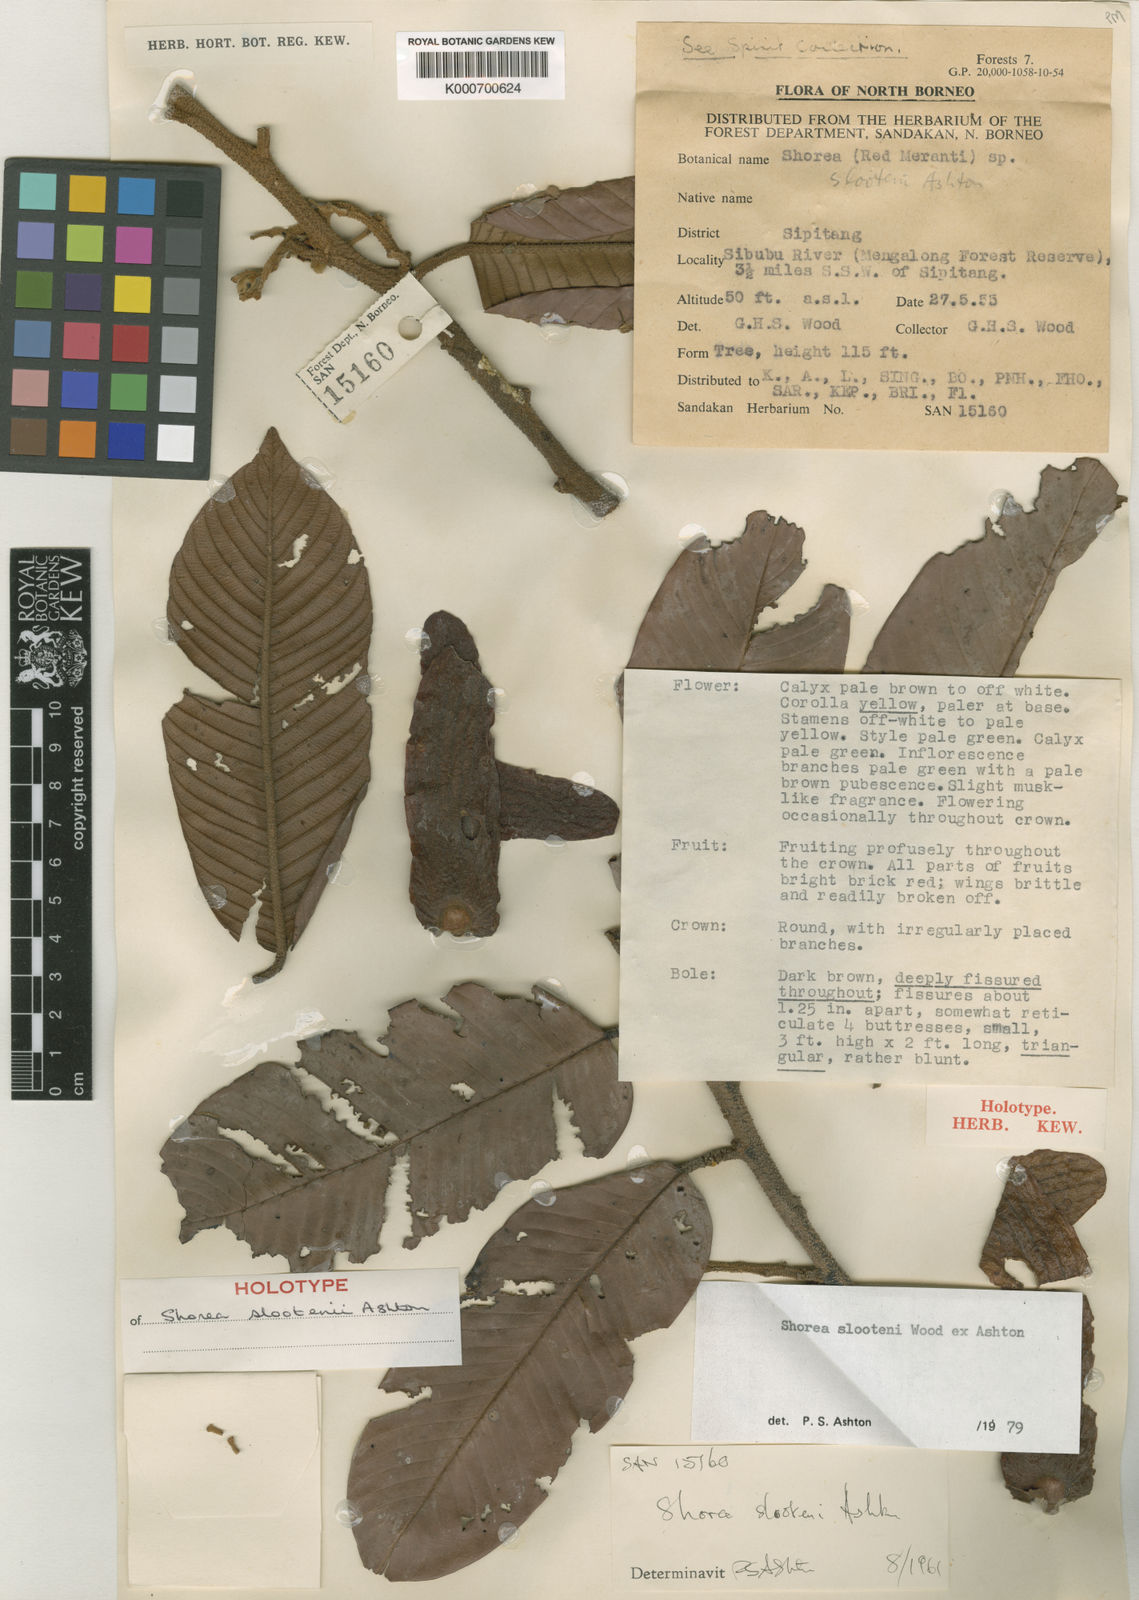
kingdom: Plantae
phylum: Tracheophyta
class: Magnoliopsida
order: Malvales
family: Dipterocarpaceae
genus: Shorea
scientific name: Shorea slootenii
